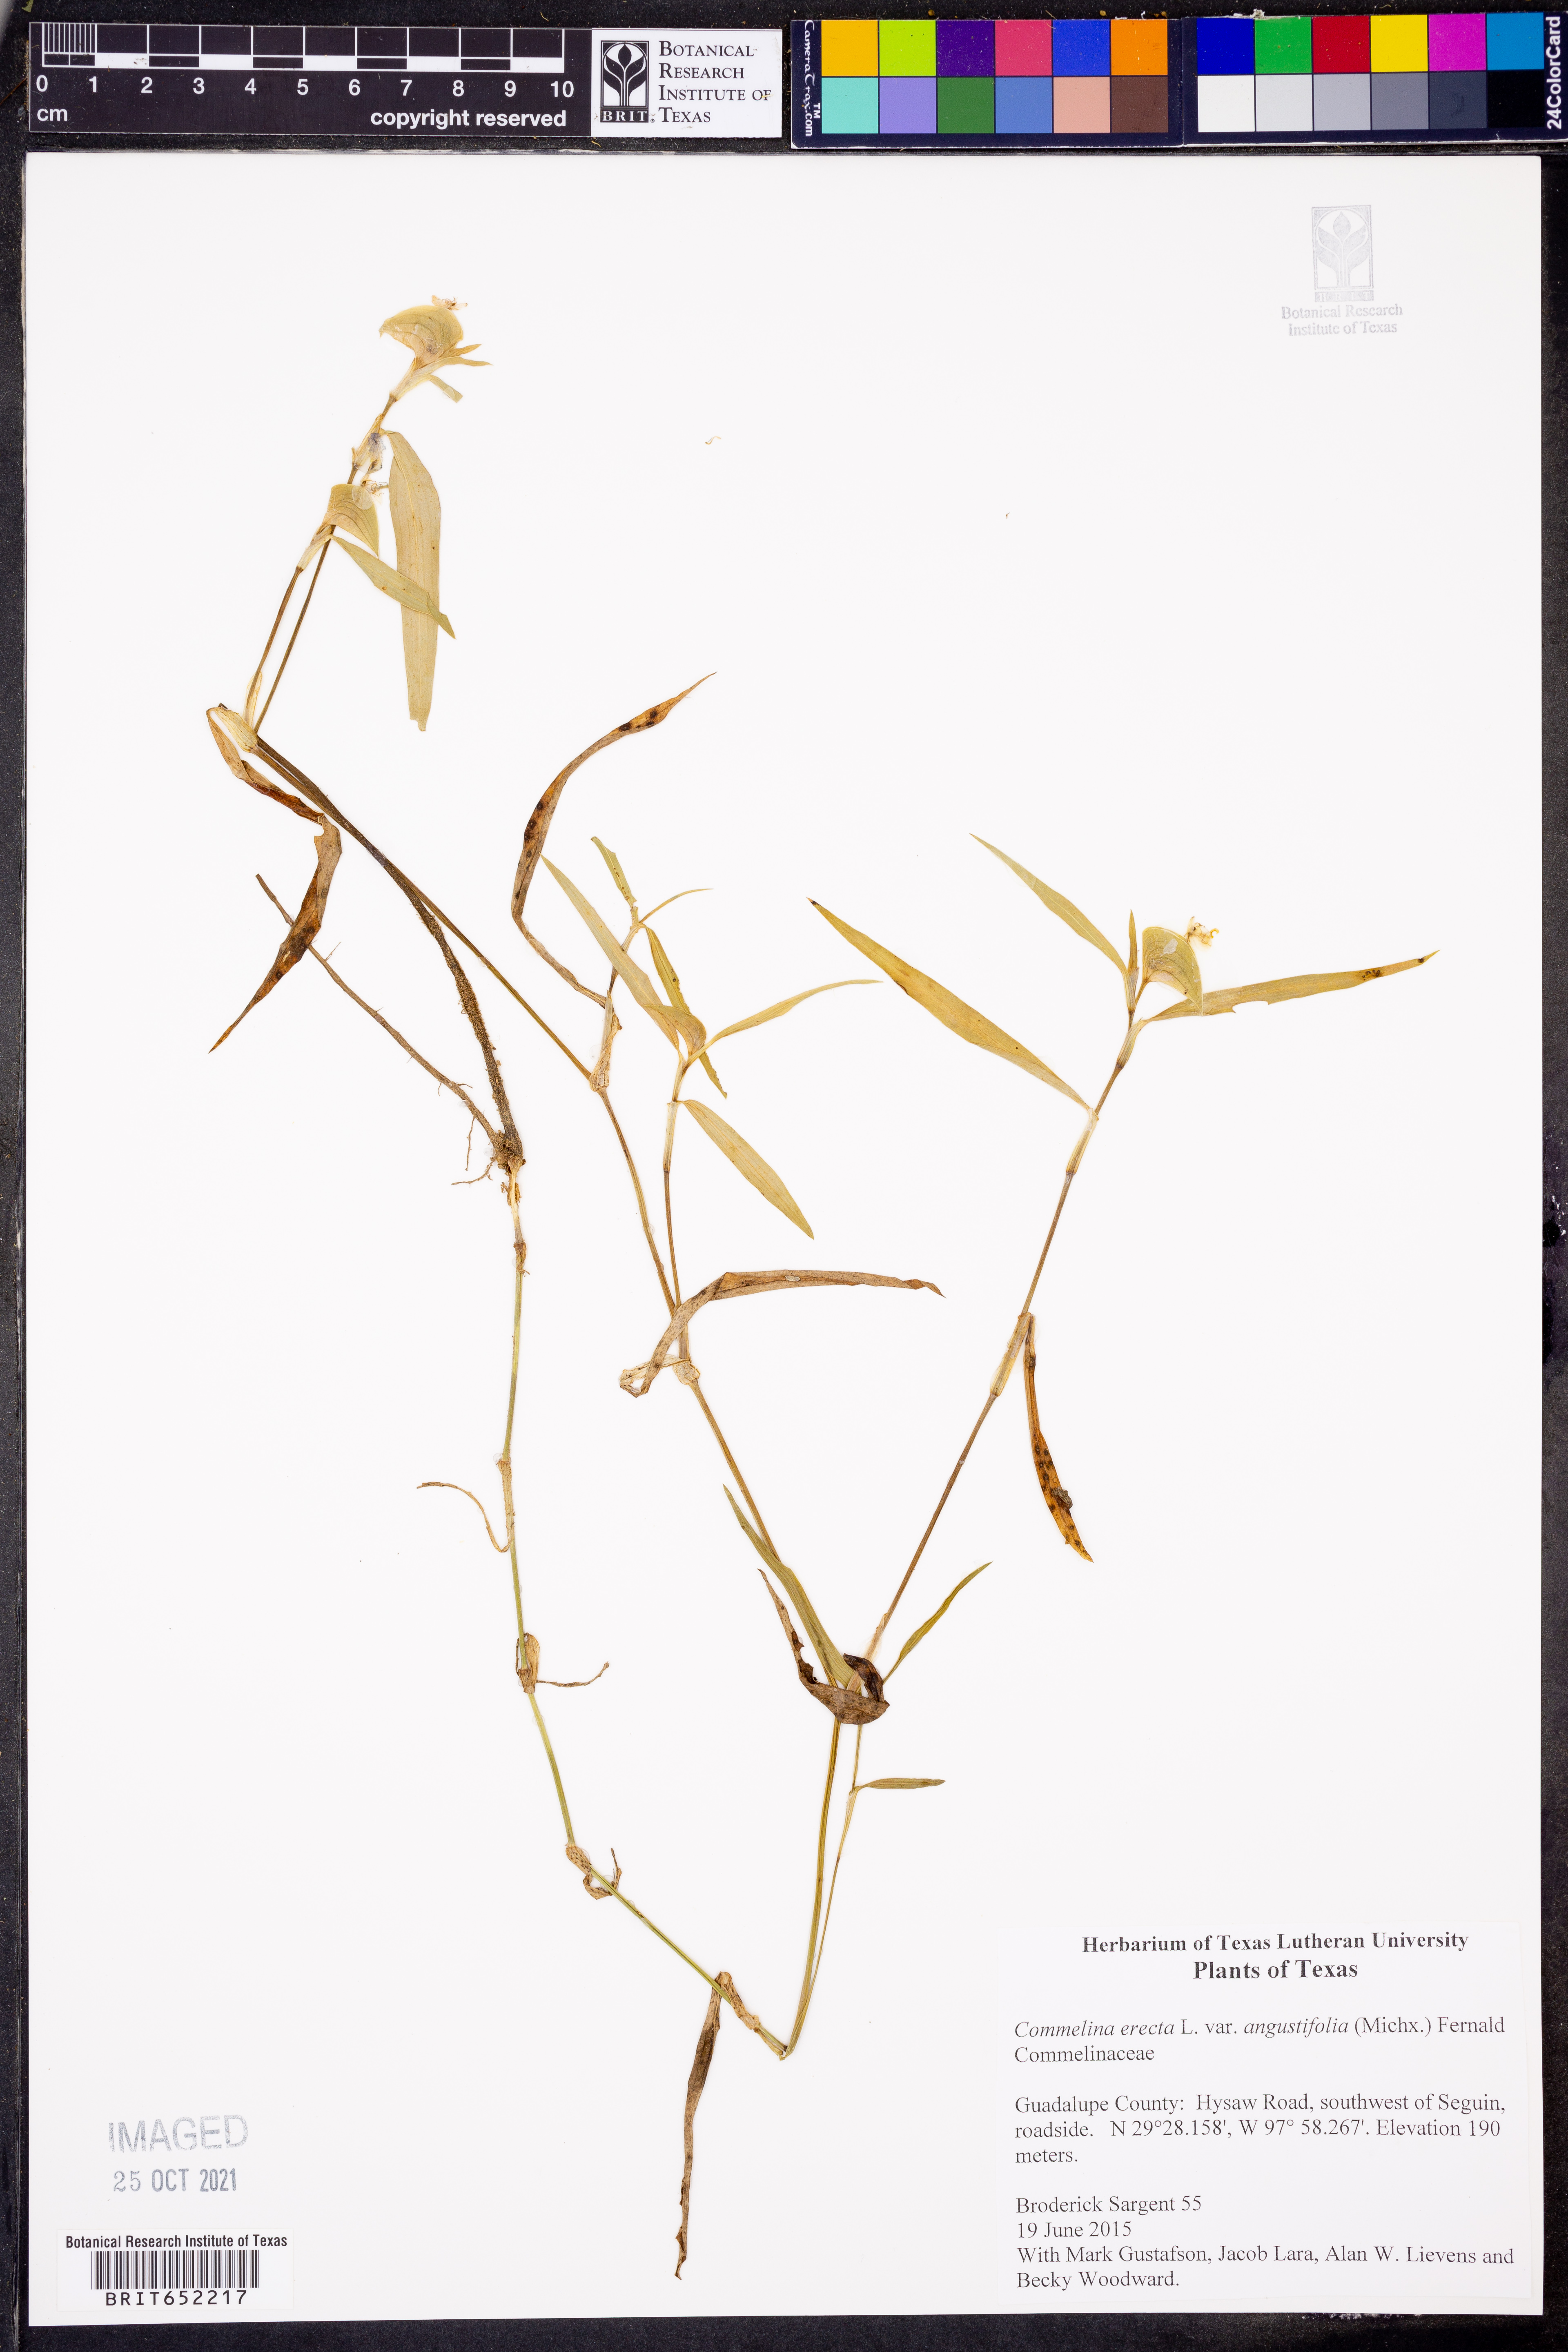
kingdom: Plantae
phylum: Tracheophyta
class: Liliopsida
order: Commelinales
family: Commelinaceae
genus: Commelina
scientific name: Commelina erecta
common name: Blousel blommetjie
